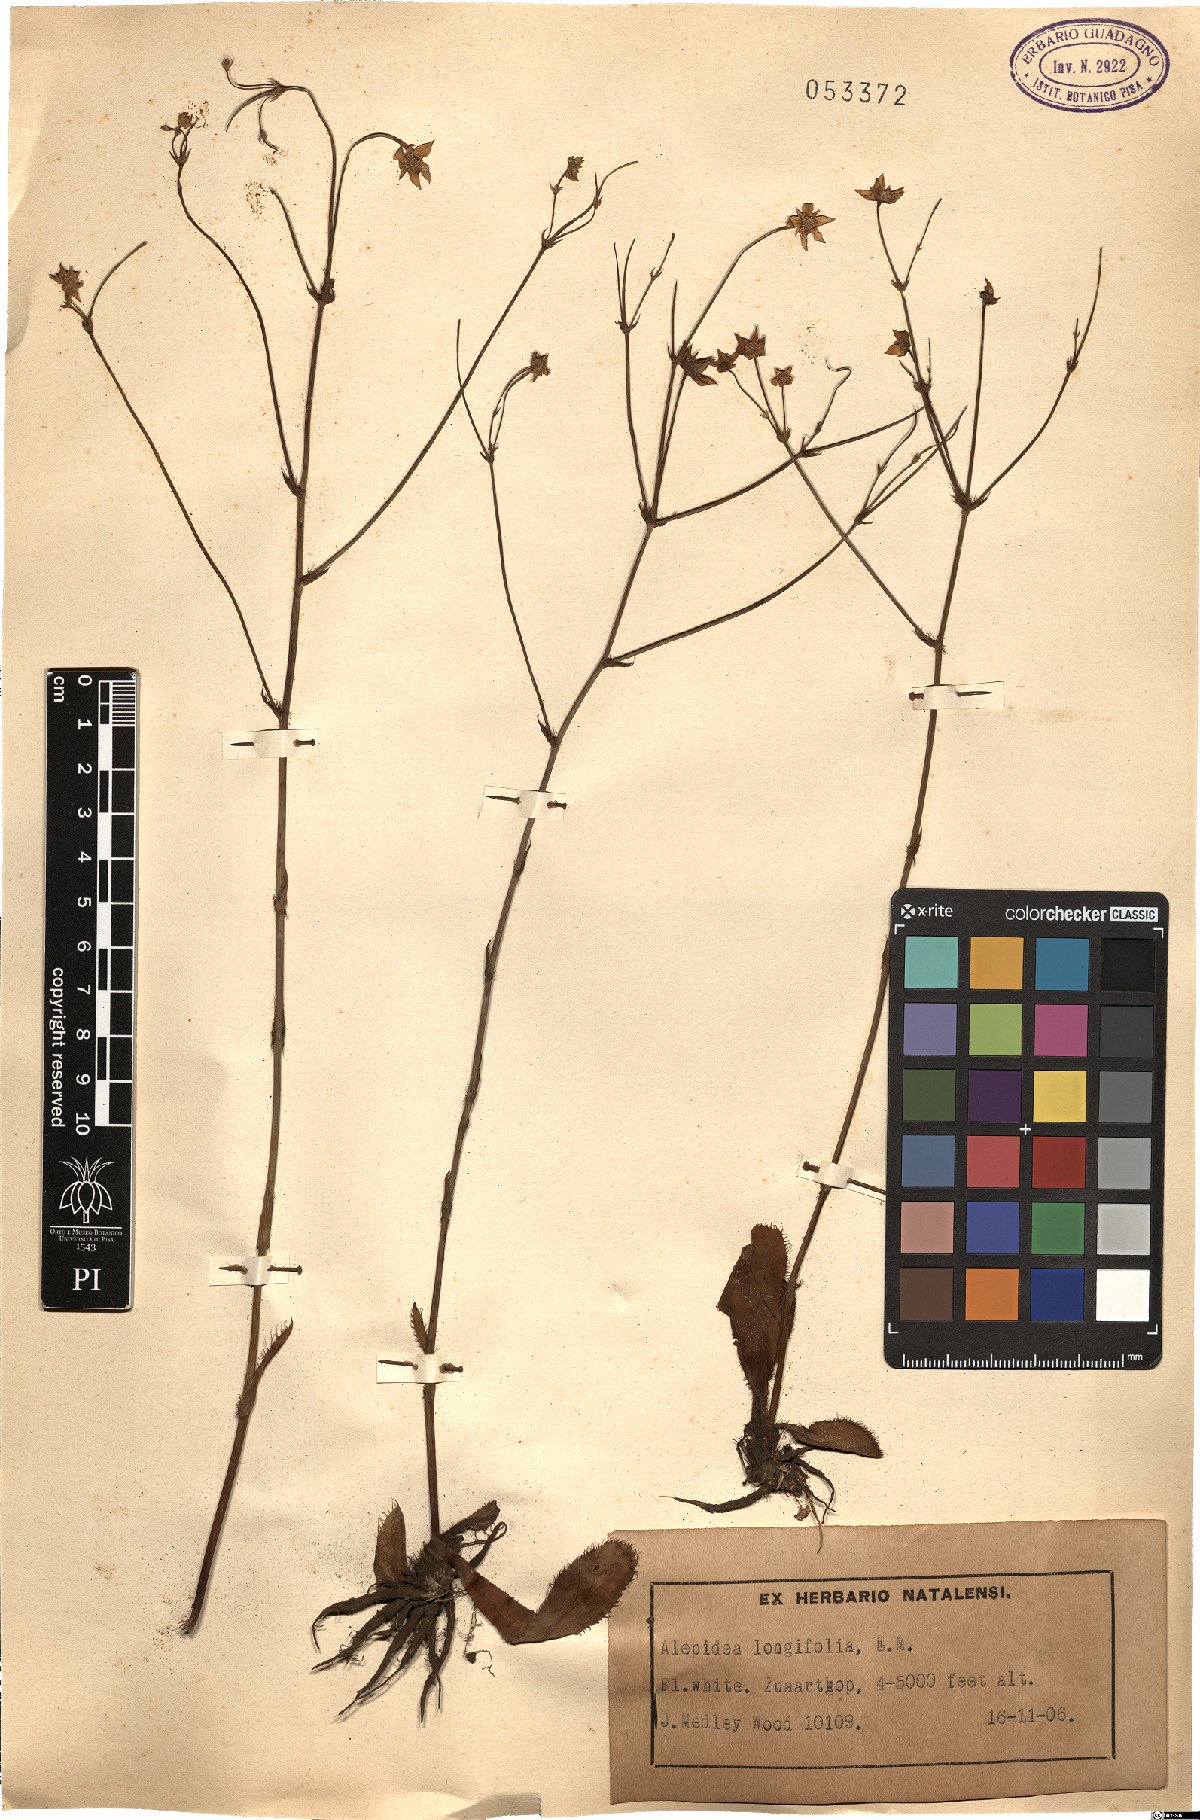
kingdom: Plantae
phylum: Tracheophyta
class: Magnoliopsida
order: Apiales
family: Apiaceae
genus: Alepidea
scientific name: Alepidea longifolia
